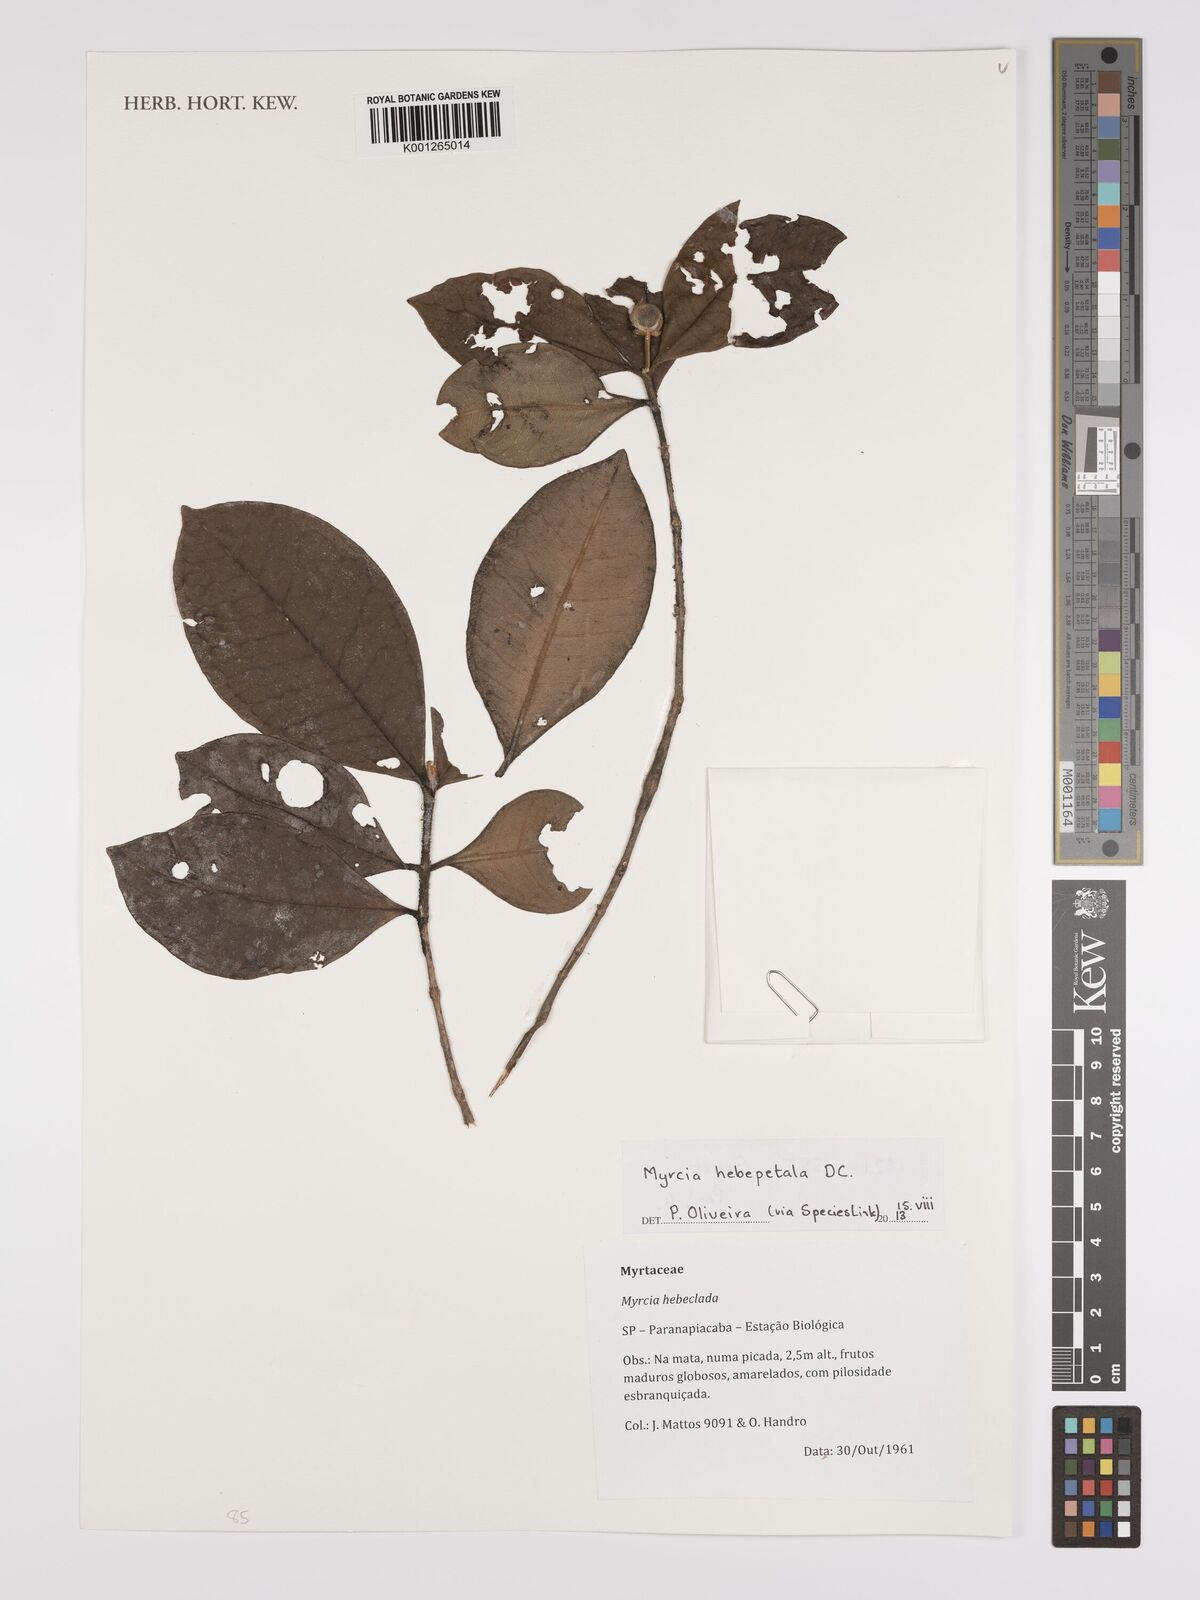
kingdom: Plantae
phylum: Tracheophyta
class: Magnoliopsida
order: Myrtales
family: Myrtaceae
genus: Myrcia
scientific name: Myrcia hebepetala
